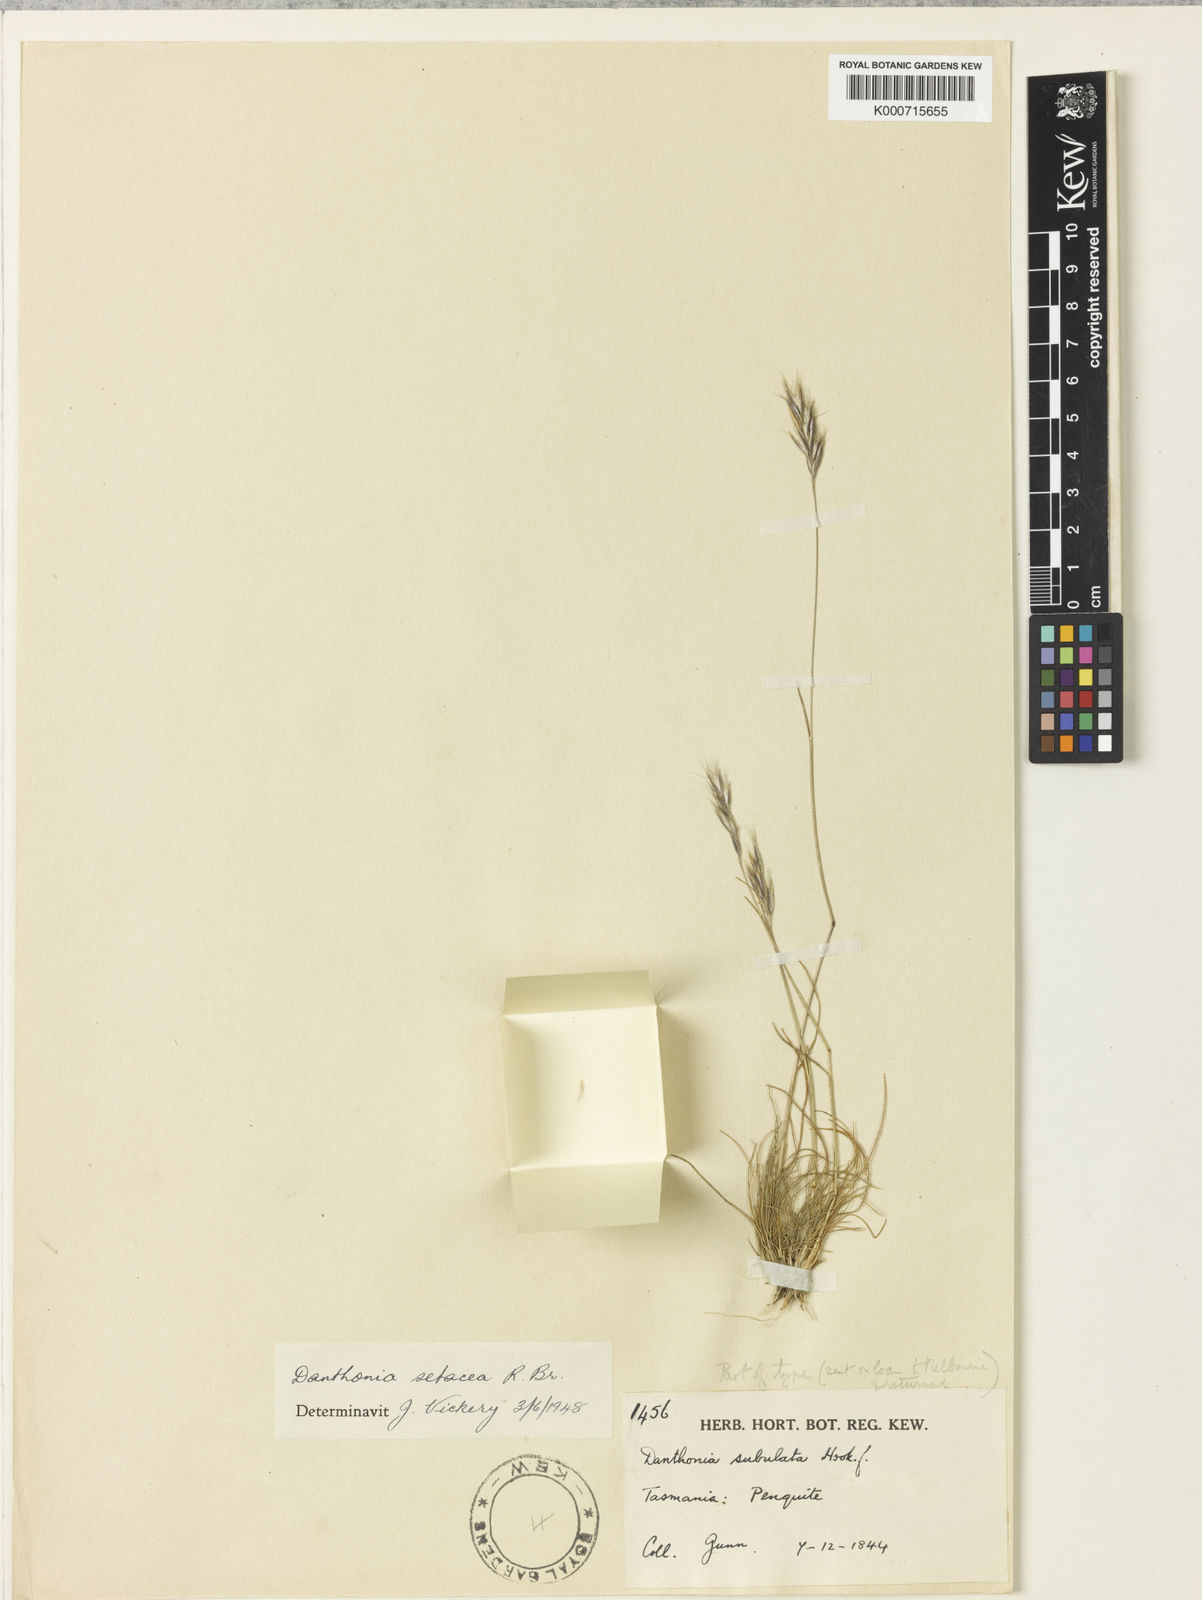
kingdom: Plantae
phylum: Tracheophyta
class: Liliopsida
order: Poales
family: Poaceae
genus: Rytidosperma
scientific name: Rytidosperma setaceum
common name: Small-flower wallaby grass
